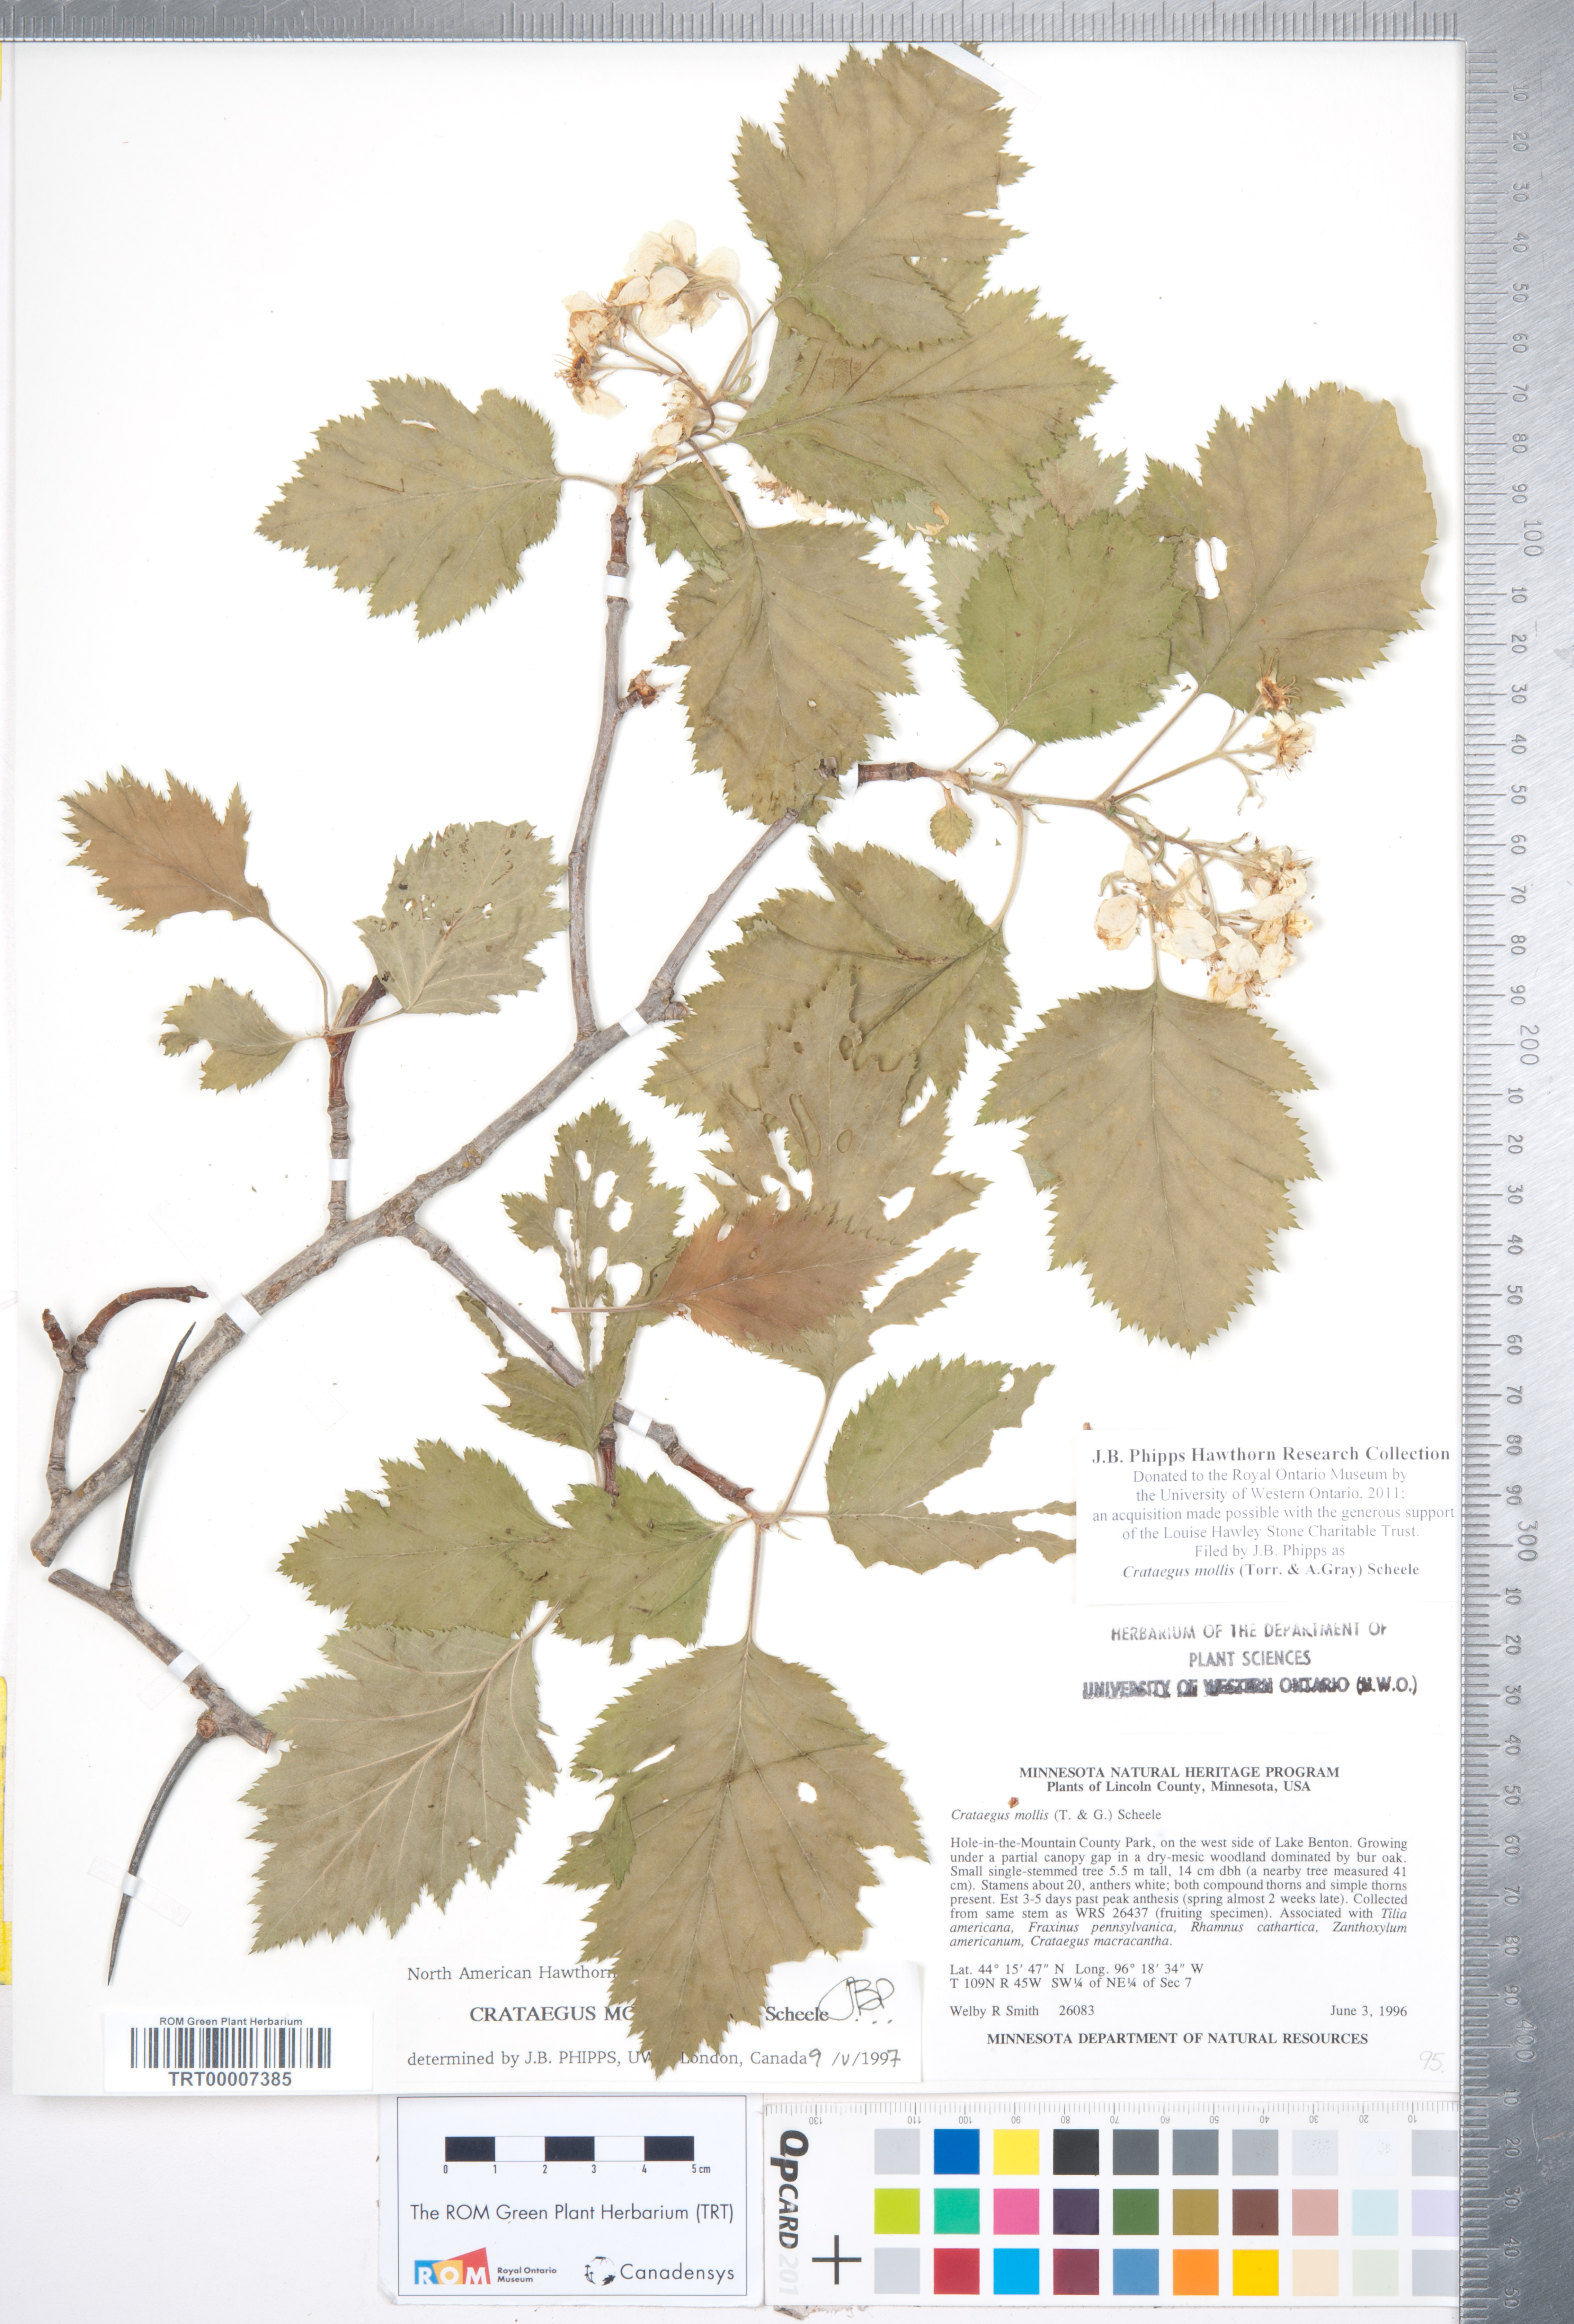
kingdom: Plantae
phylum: Tracheophyta
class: Magnoliopsida
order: Rosales
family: Rosaceae
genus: Crataegus
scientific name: Crataegus mollis
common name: Downy hawthorn
